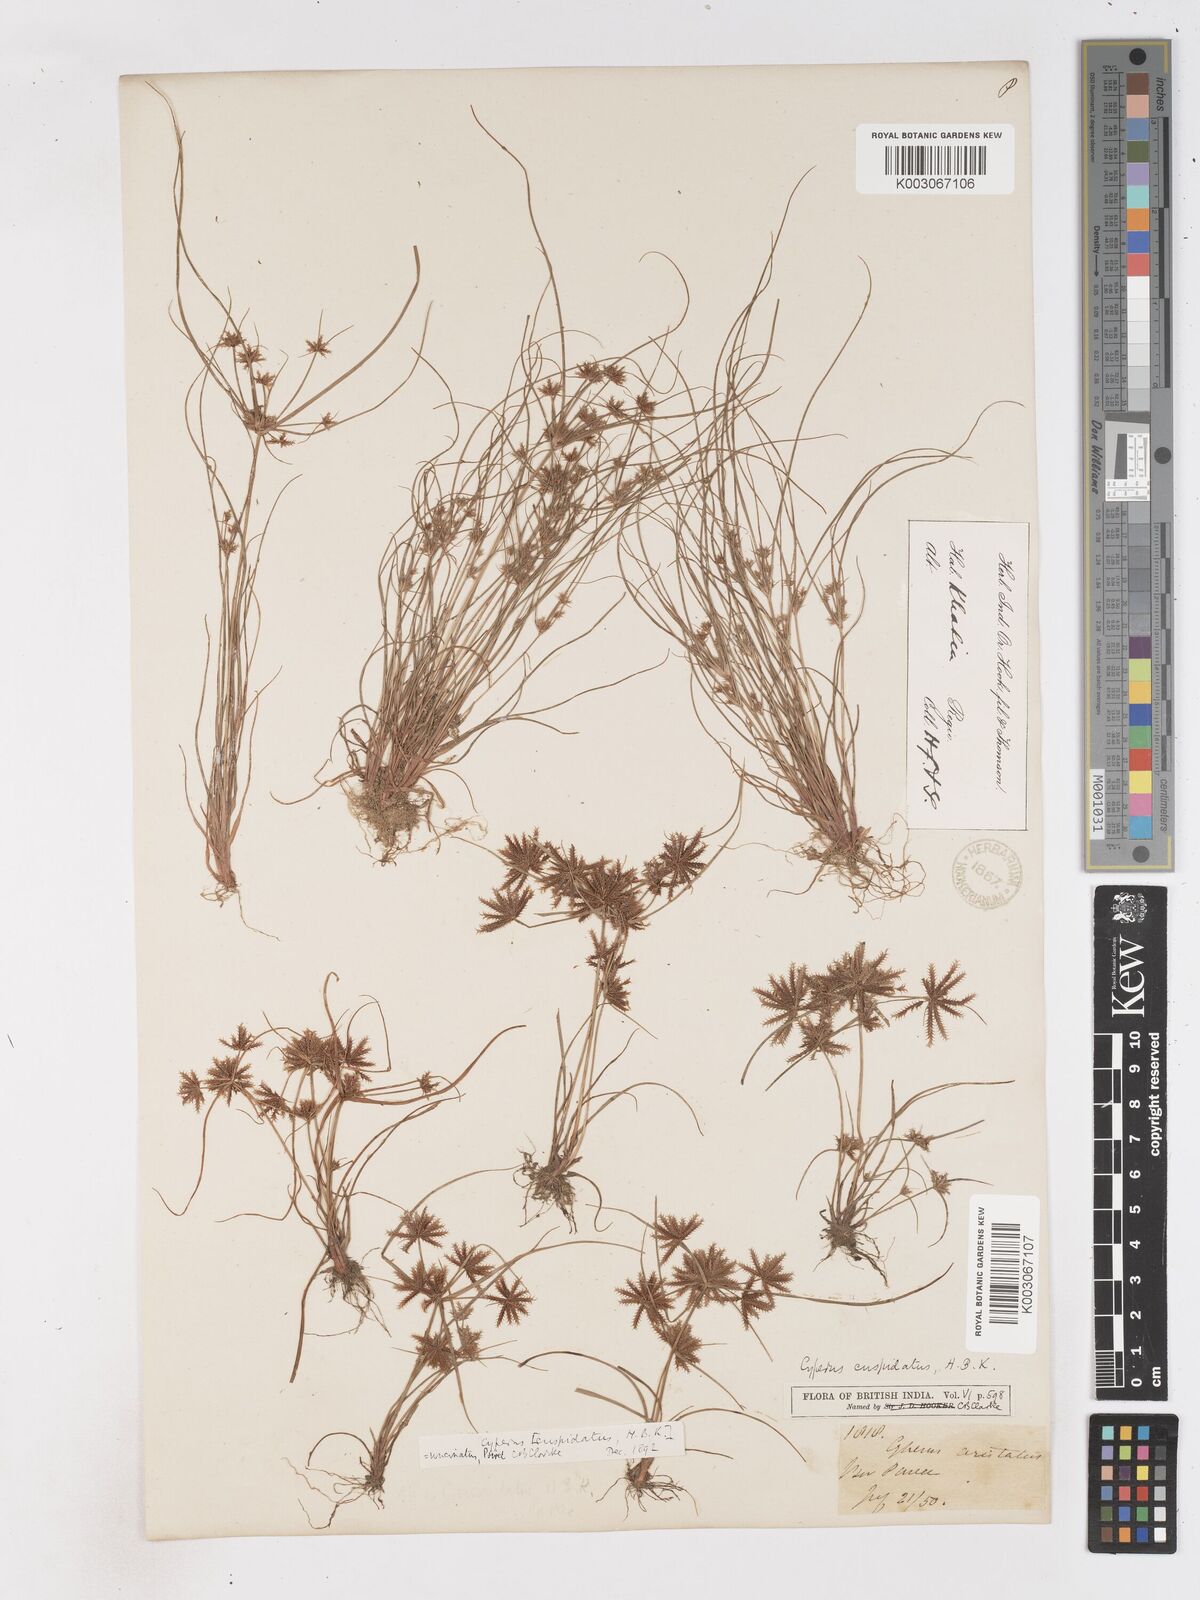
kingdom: Plantae
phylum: Tracheophyta
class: Liliopsida
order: Poales
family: Cyperaceae
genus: Cyperus
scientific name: Cyperus cuspidatus
